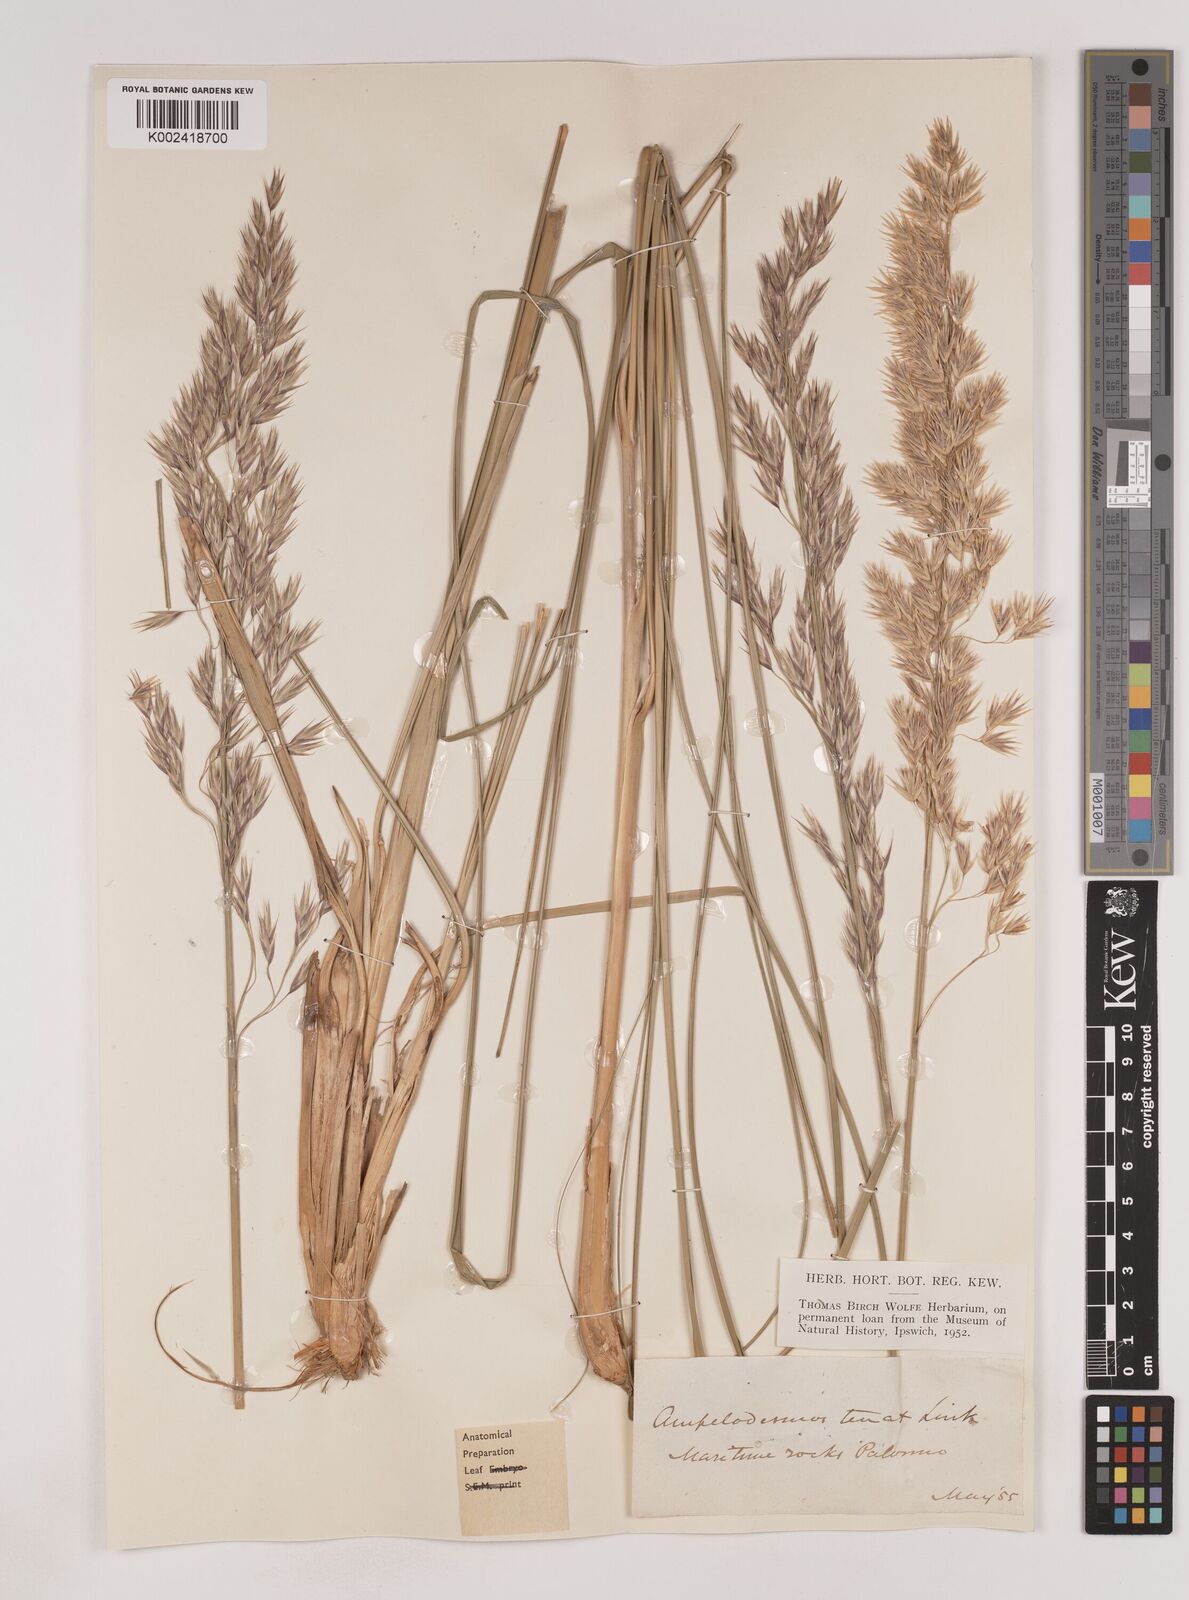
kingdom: Plantae
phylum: Tracheophyta
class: Liliopsida
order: Poales
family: Poaceae
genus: Ampelodesmos
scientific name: Ampelodesmos mauritanicus
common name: Mauritanian grass
